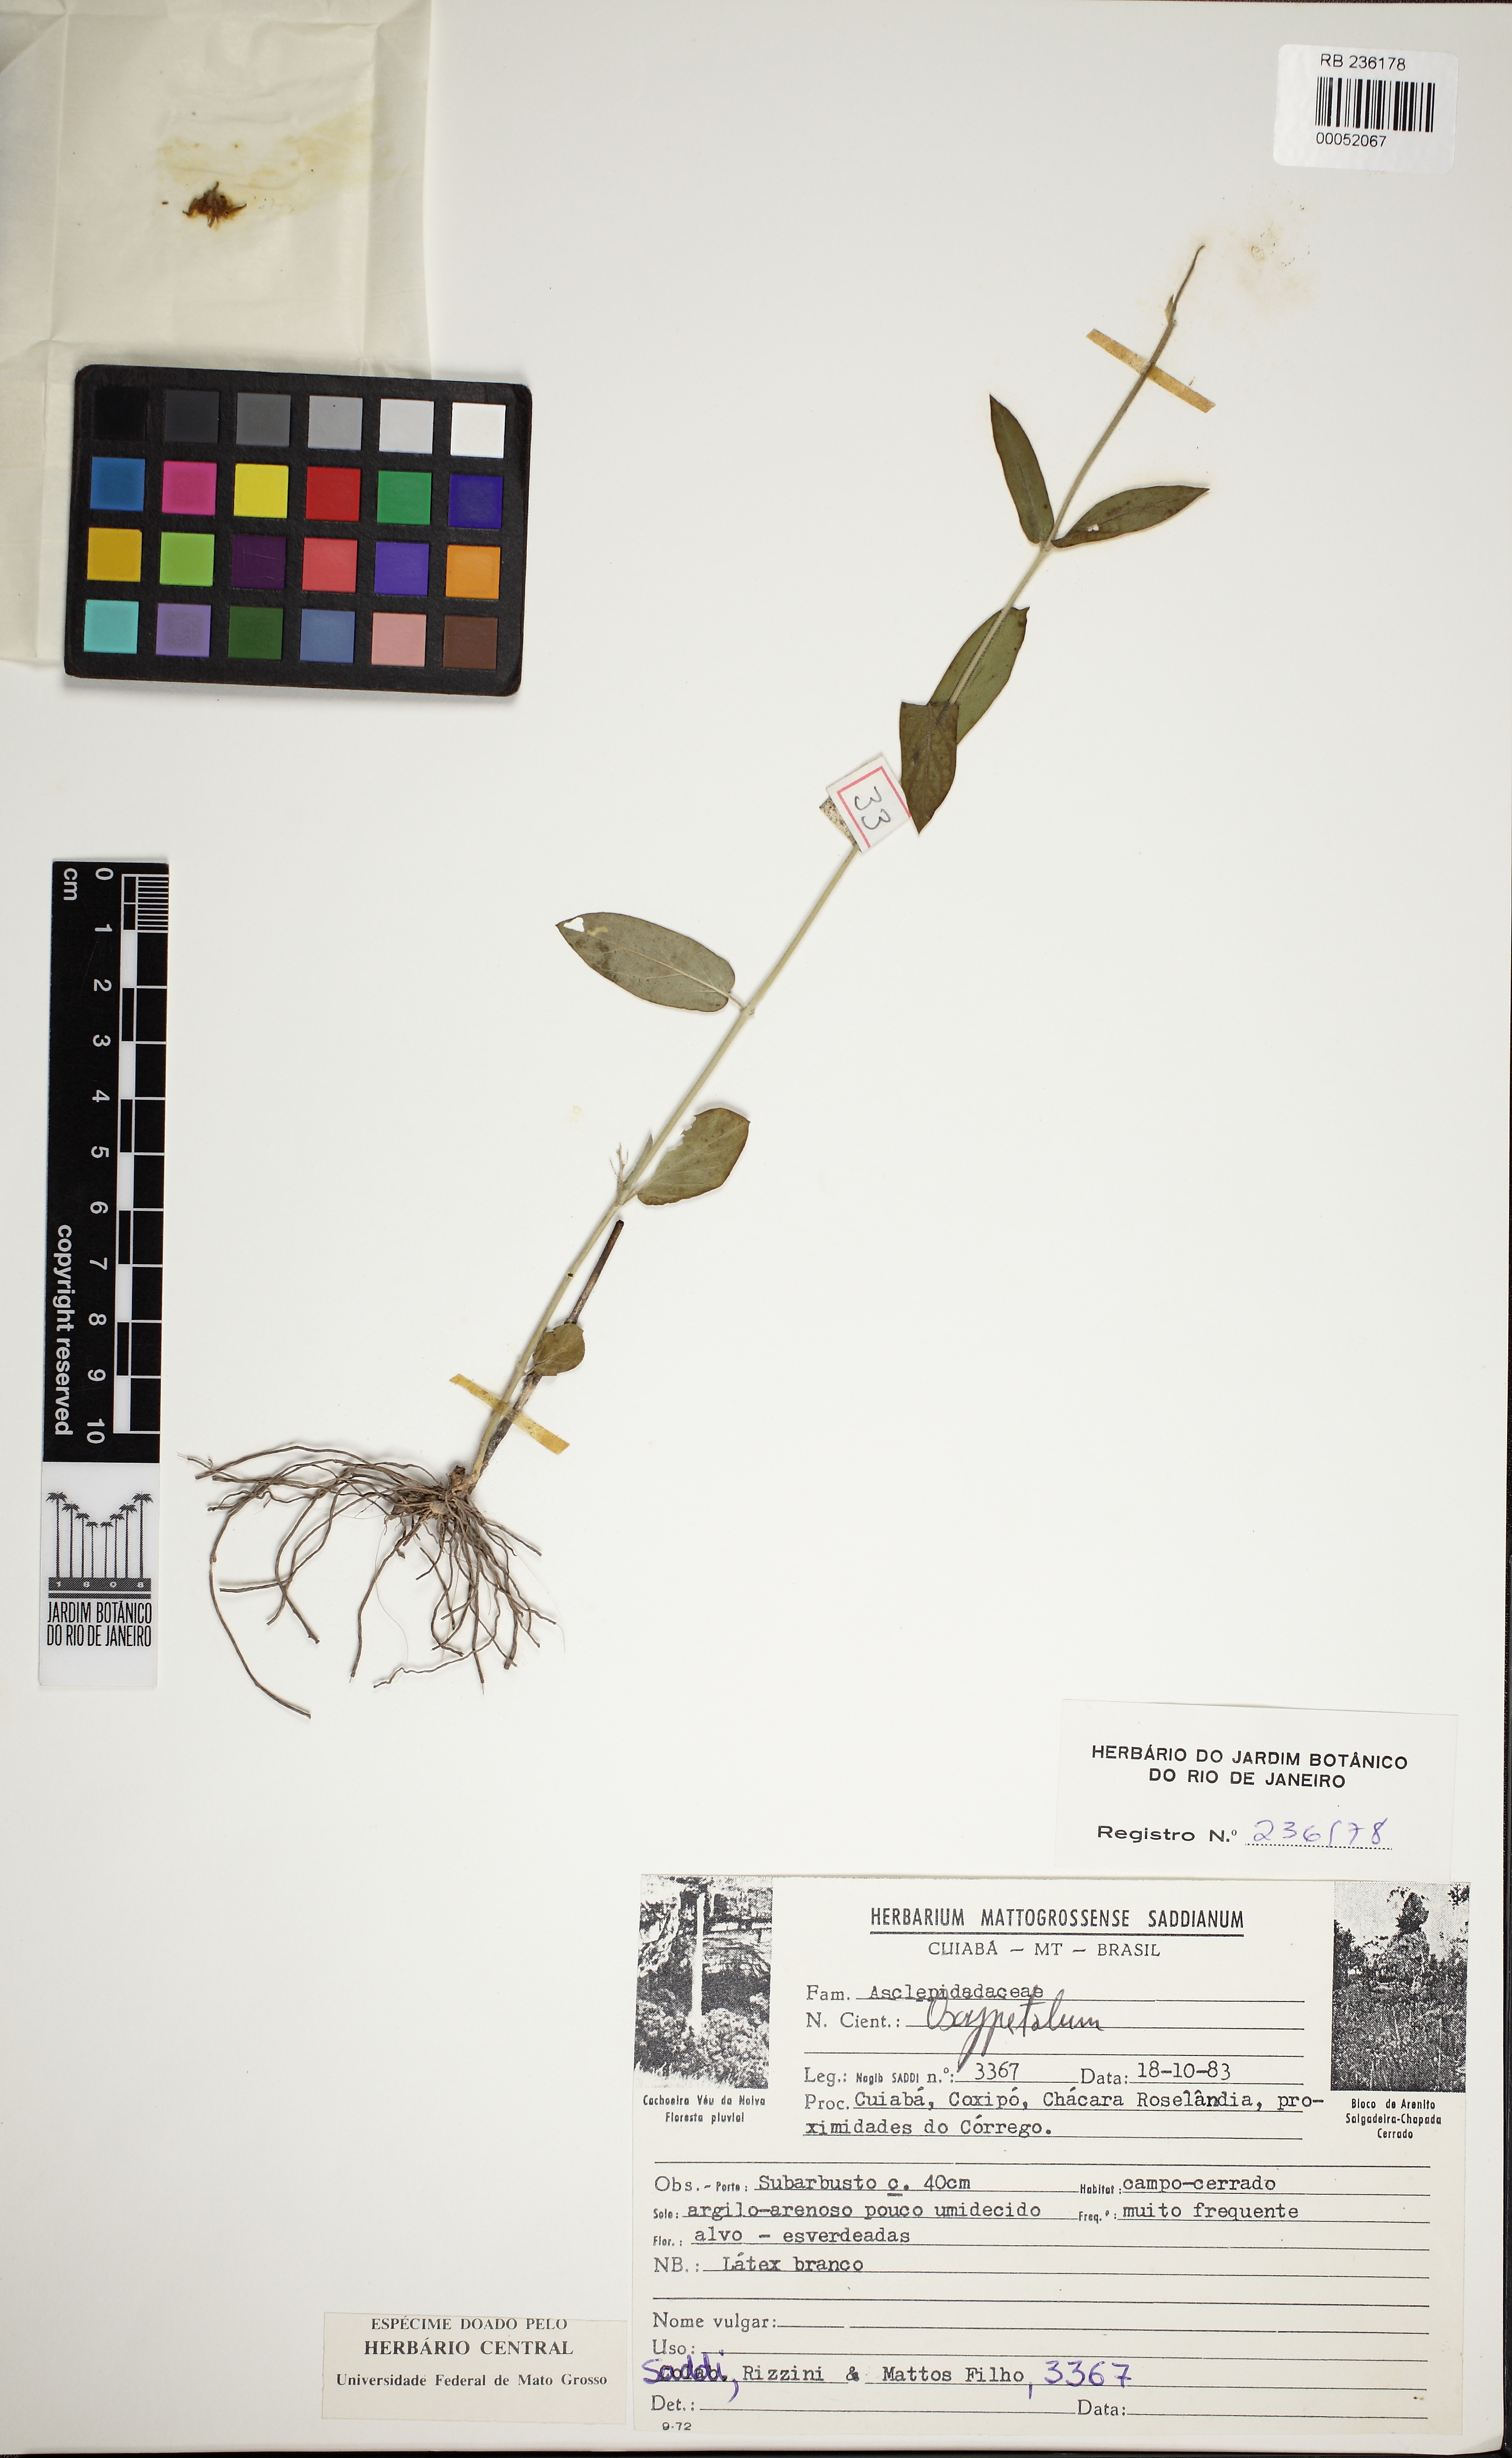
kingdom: Plantae
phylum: Tracheophyta
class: Magnoliopsida
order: Gentianales
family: Apocynaceae
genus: Oxypetalum
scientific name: Oxypetalum
